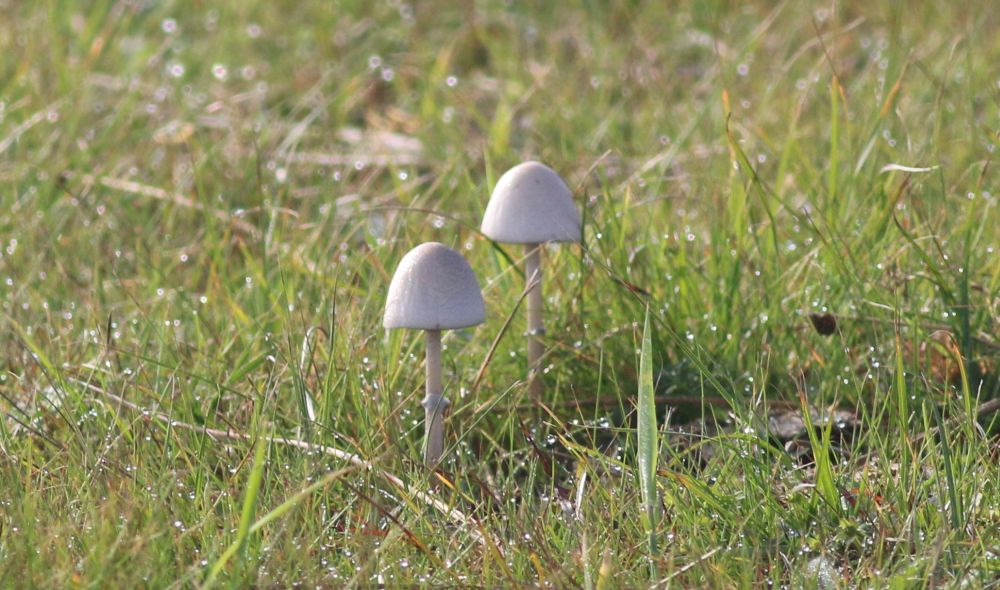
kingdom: Fungi
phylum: Basidiomycota
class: Agaricomycetes
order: Agaricales
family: Bolbitiaceae
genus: Panaeolus
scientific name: Panaeolus semiovatus
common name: ring-glanshat
